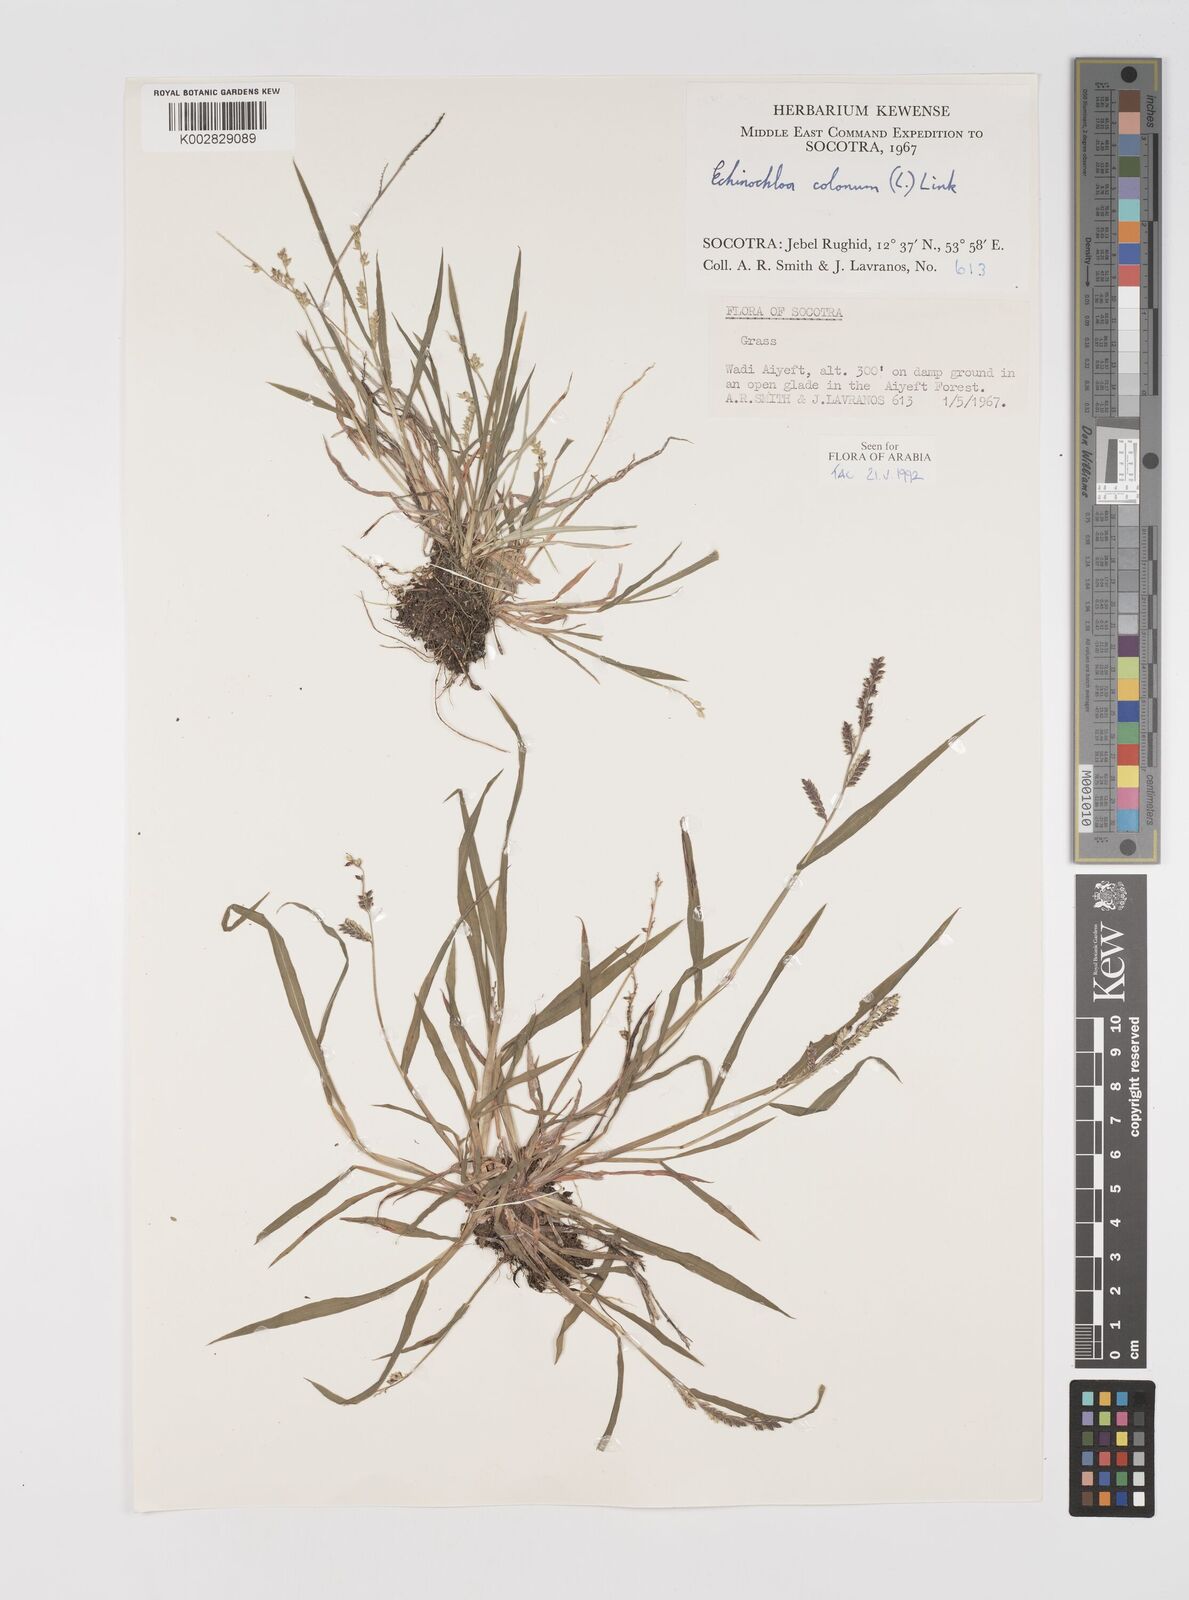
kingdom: Plantae
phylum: Tracheophyta
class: Liliopsida
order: Poales
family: Poaceae
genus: Echinochloa
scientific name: Echinochloa colonum
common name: Jungle rice
